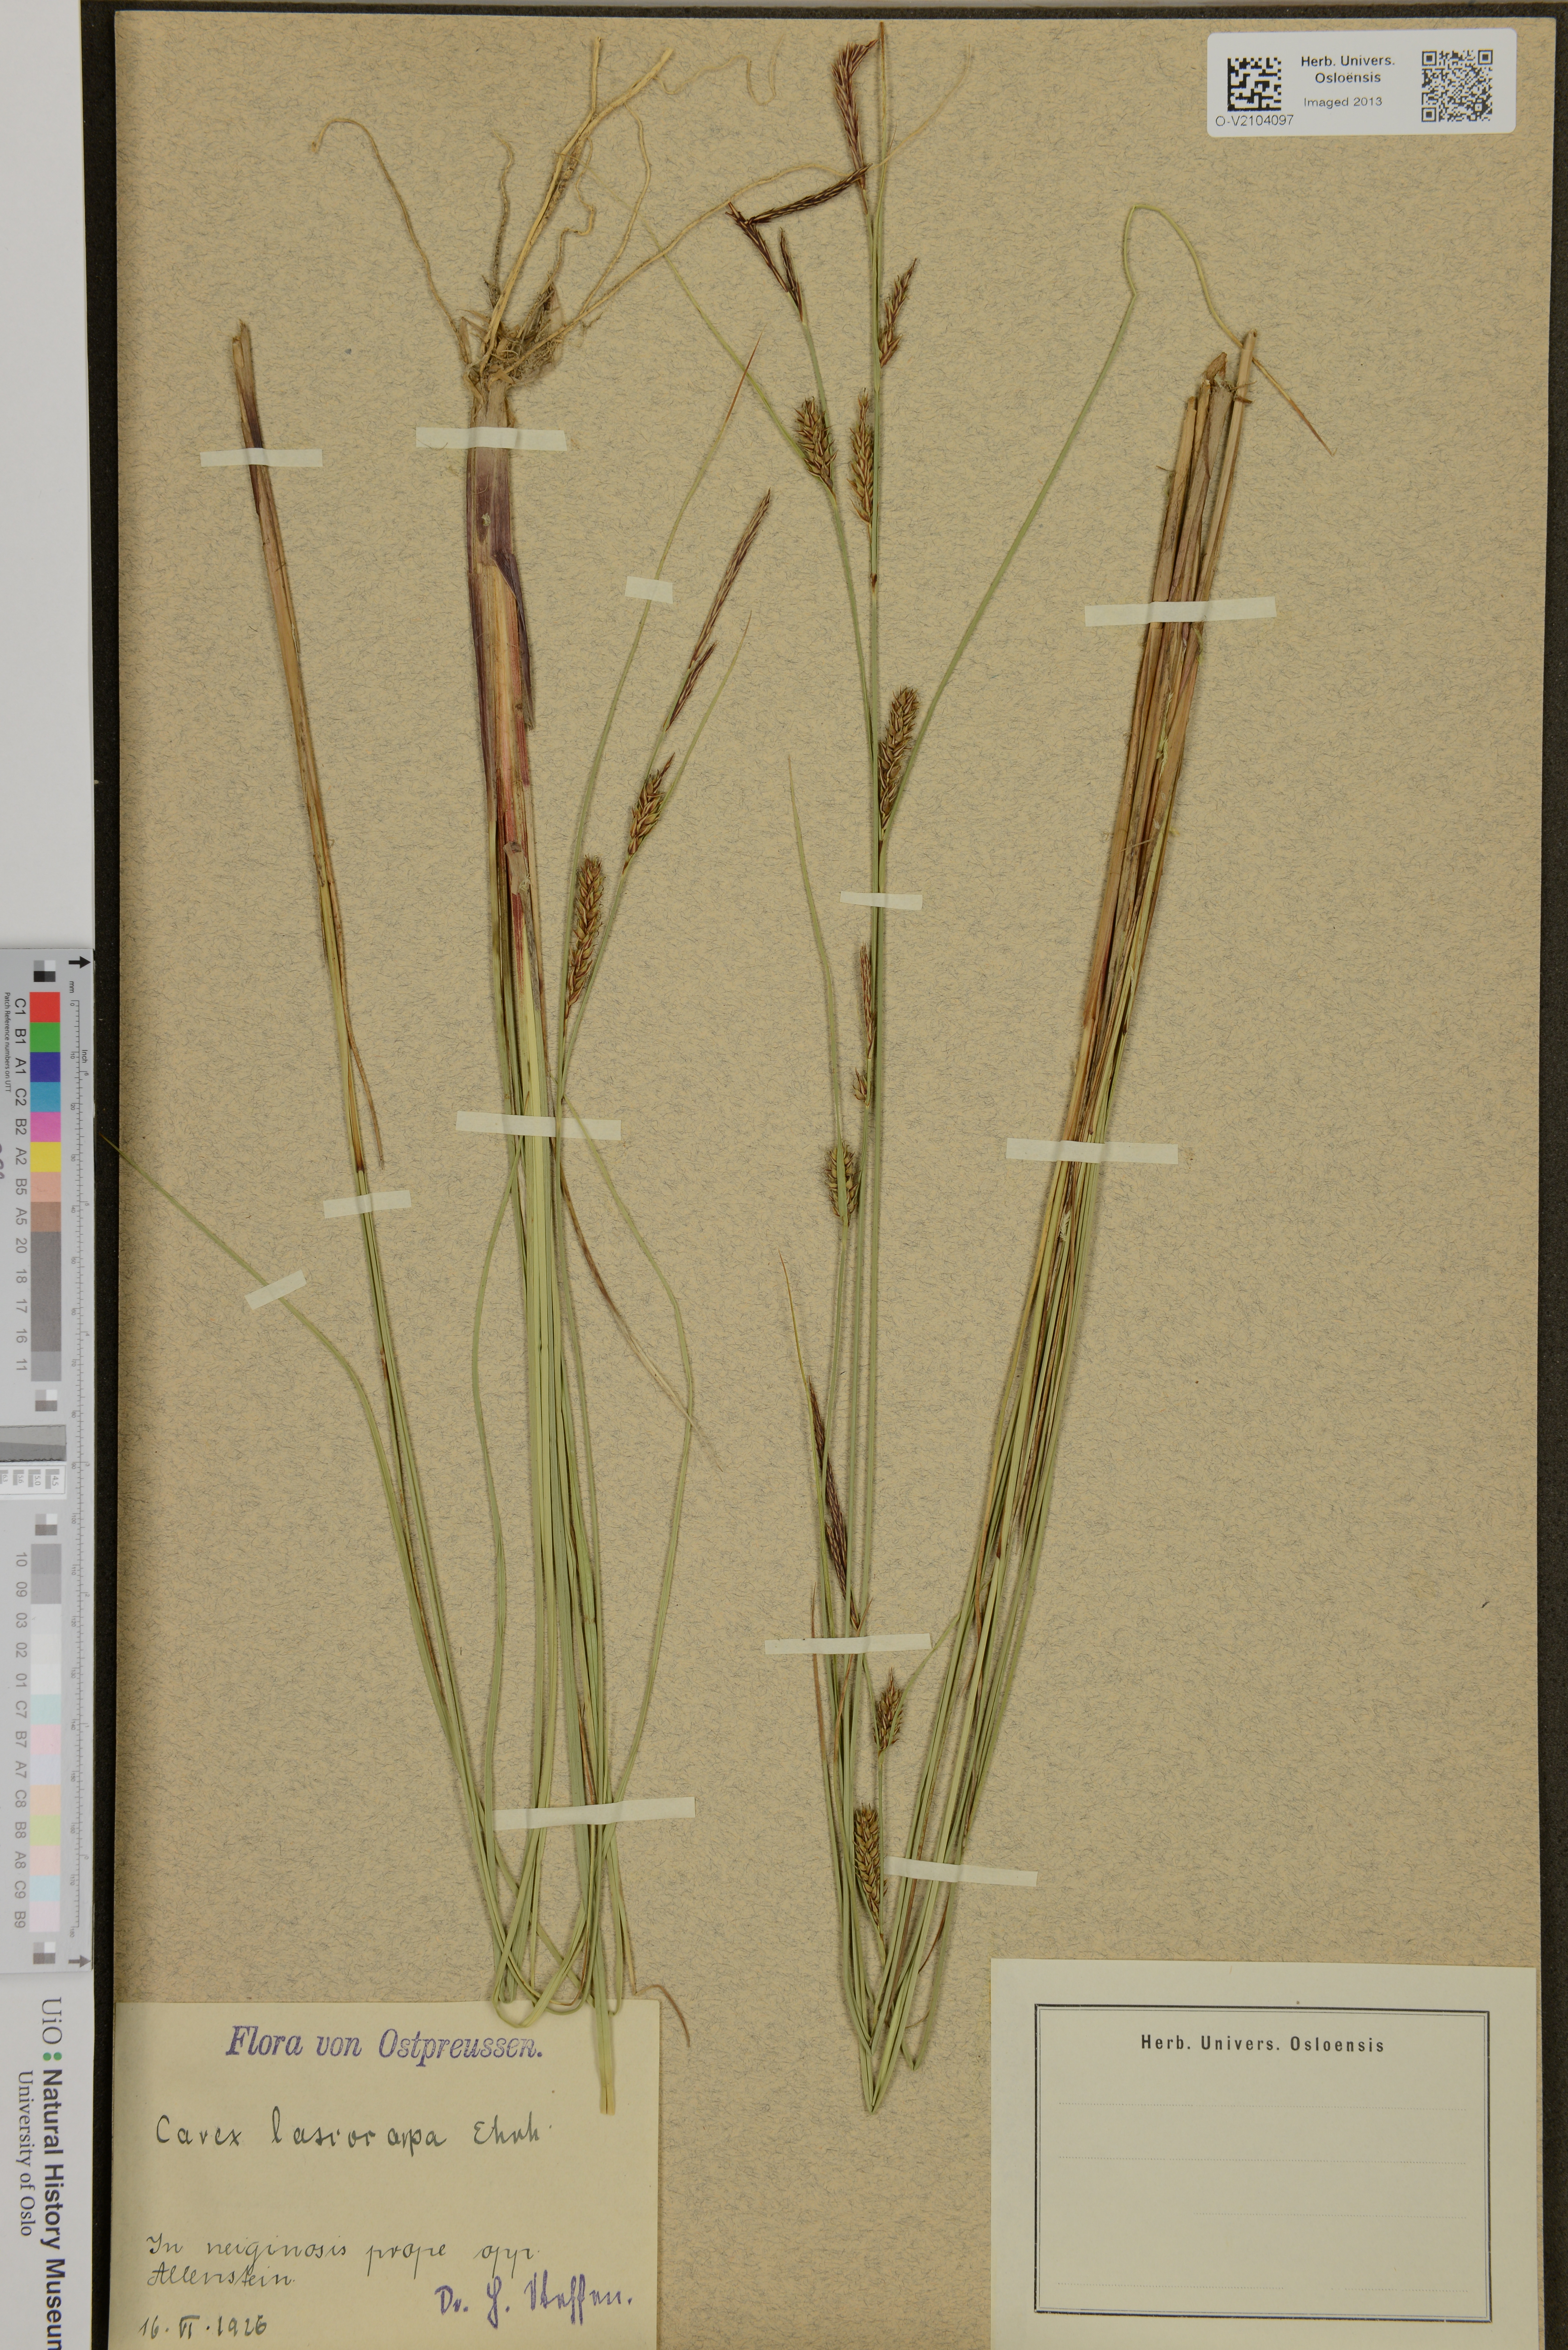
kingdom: Plantae
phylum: Tracheophyta
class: Liliopsida
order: Poales
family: Cyperaceae
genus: Carex
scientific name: Carex lasiocarpa
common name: Slender sedge
